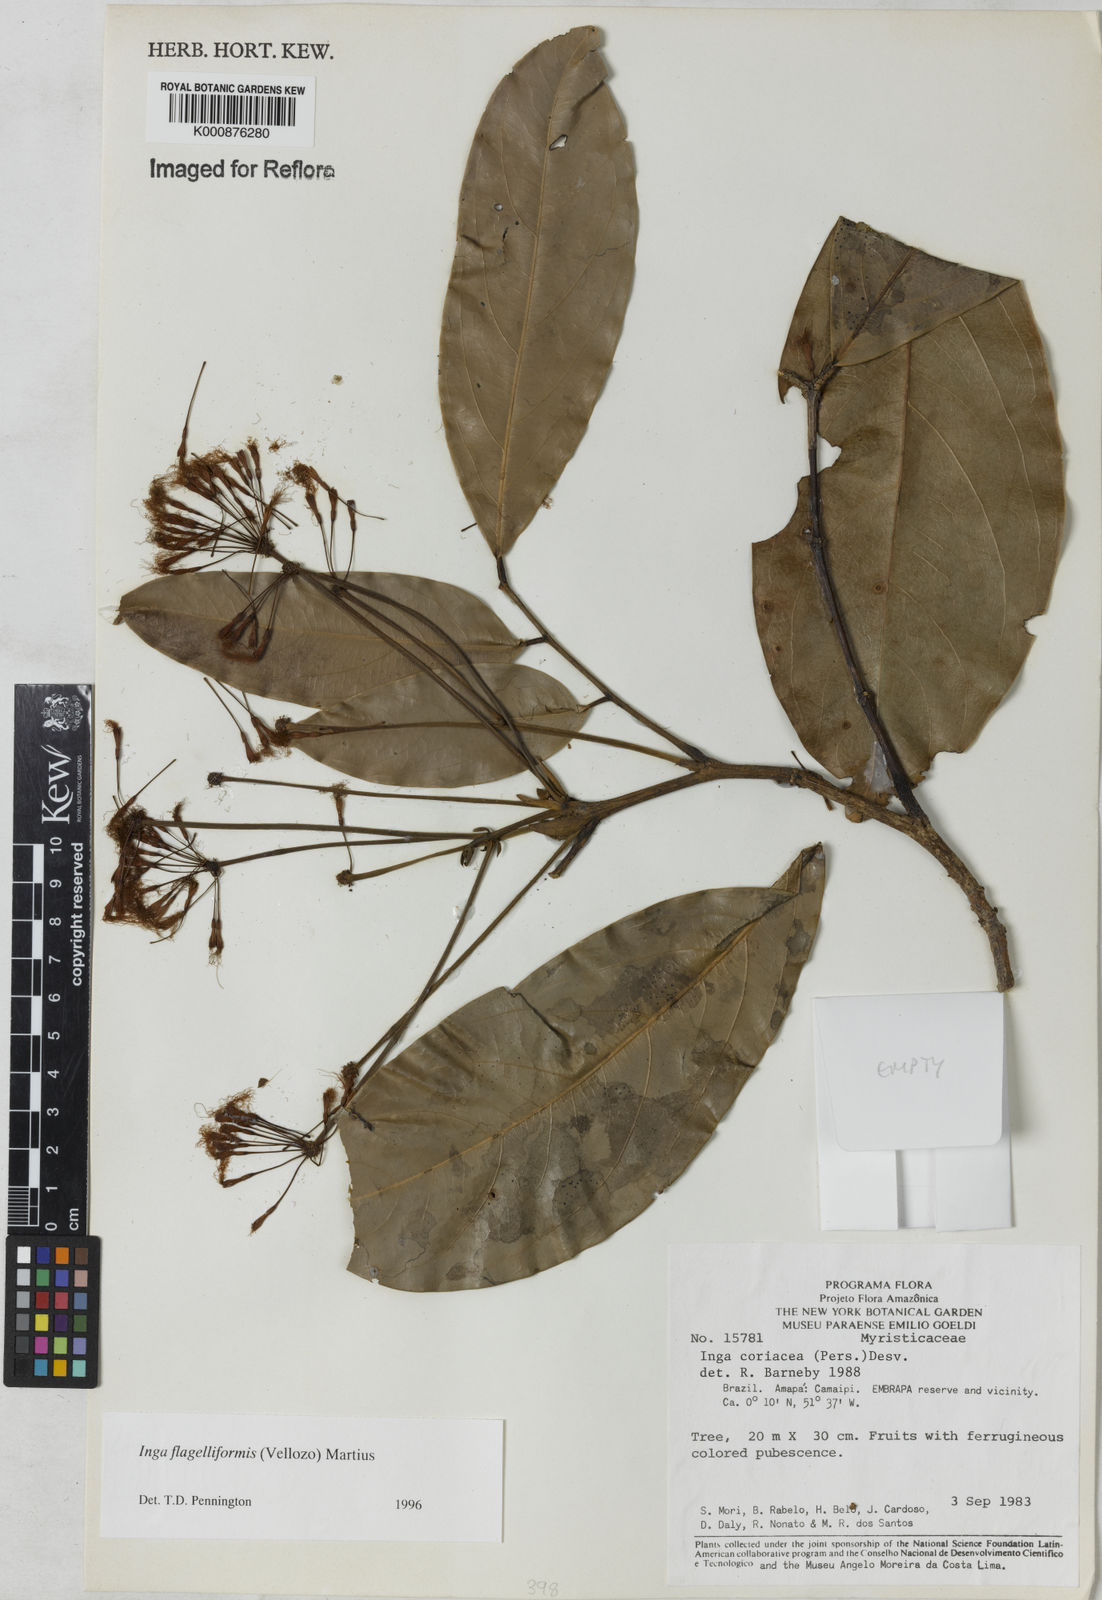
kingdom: Plantae
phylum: Tracheophyta
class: Magnoliopsida
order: Fabales
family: Fabaceae
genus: Inga
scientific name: Inga flagelliformis
